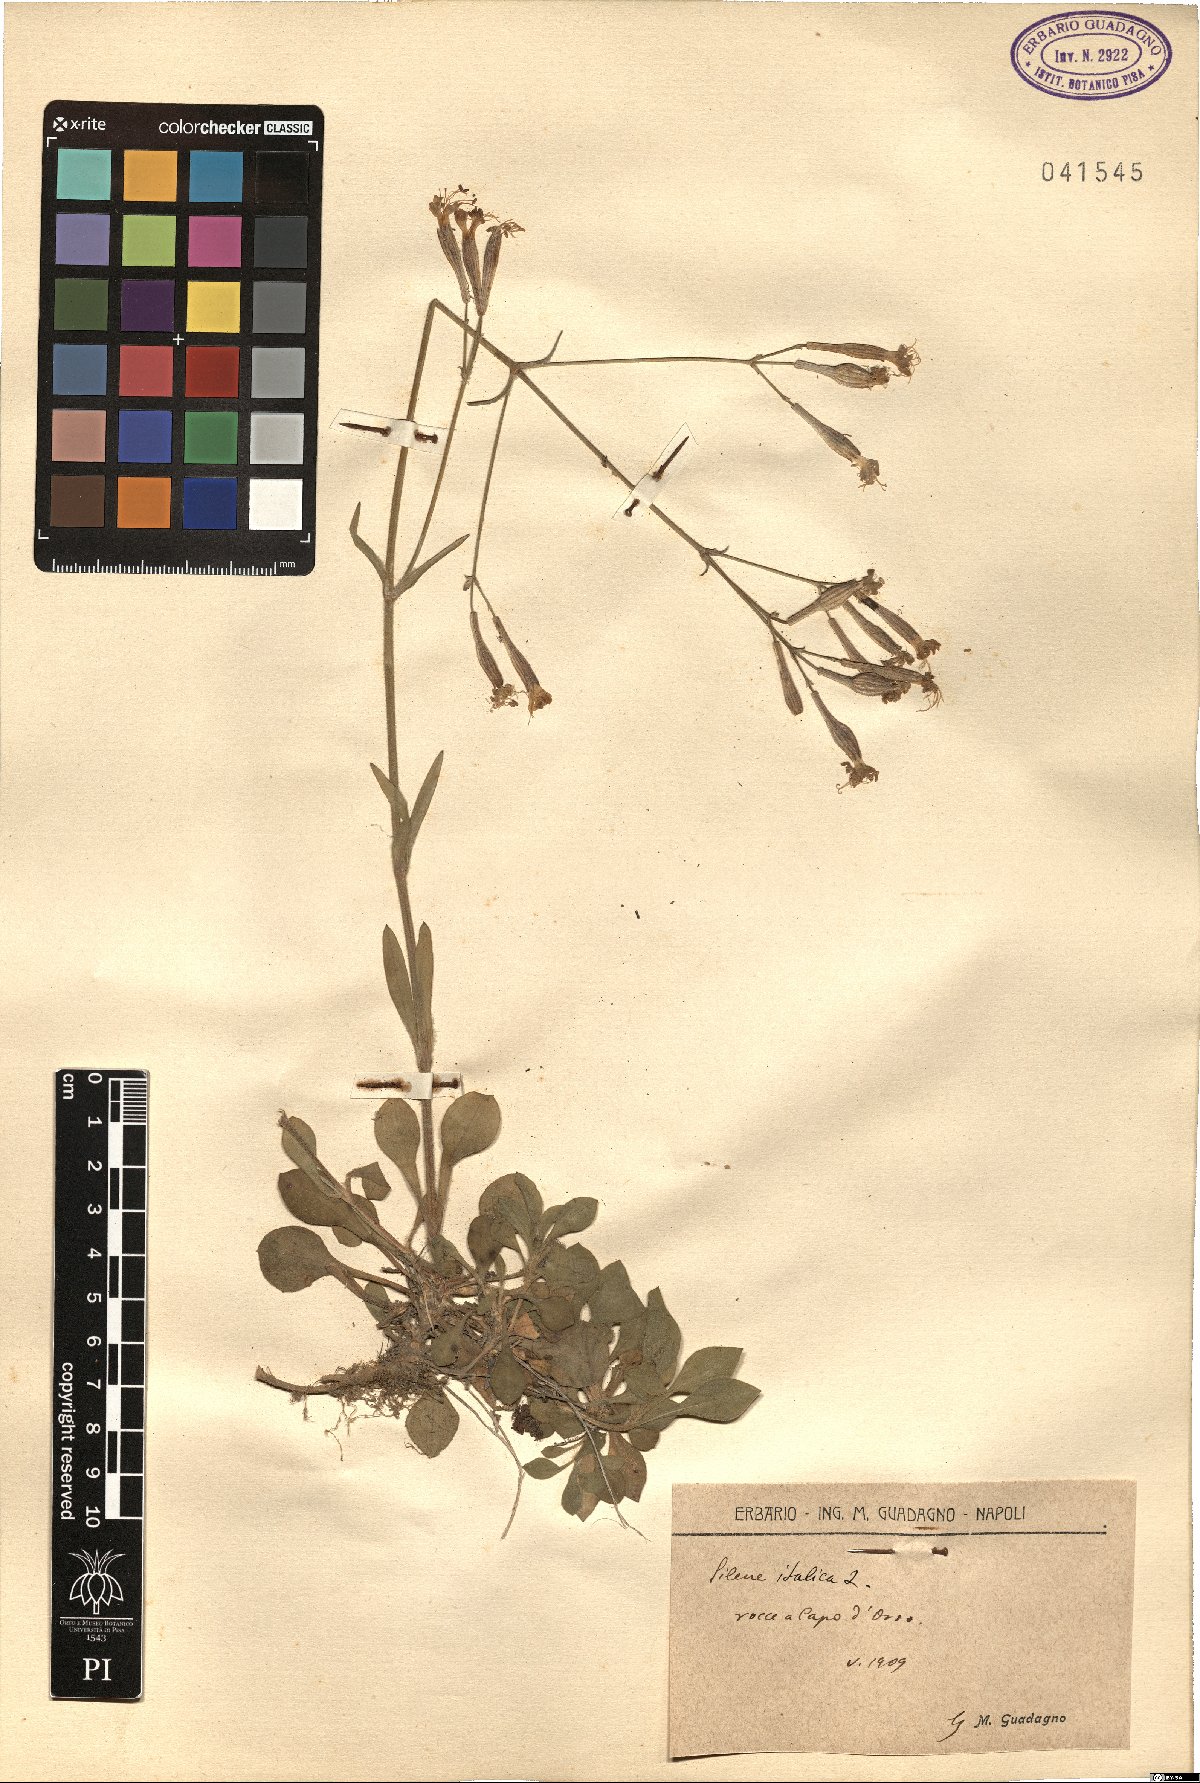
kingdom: Plantae
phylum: Tracheophyta
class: Magnoliopsida
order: Caryophyllales
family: Caryophyllaceae
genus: Silene
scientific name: Silene italica
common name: Italian catchfly
